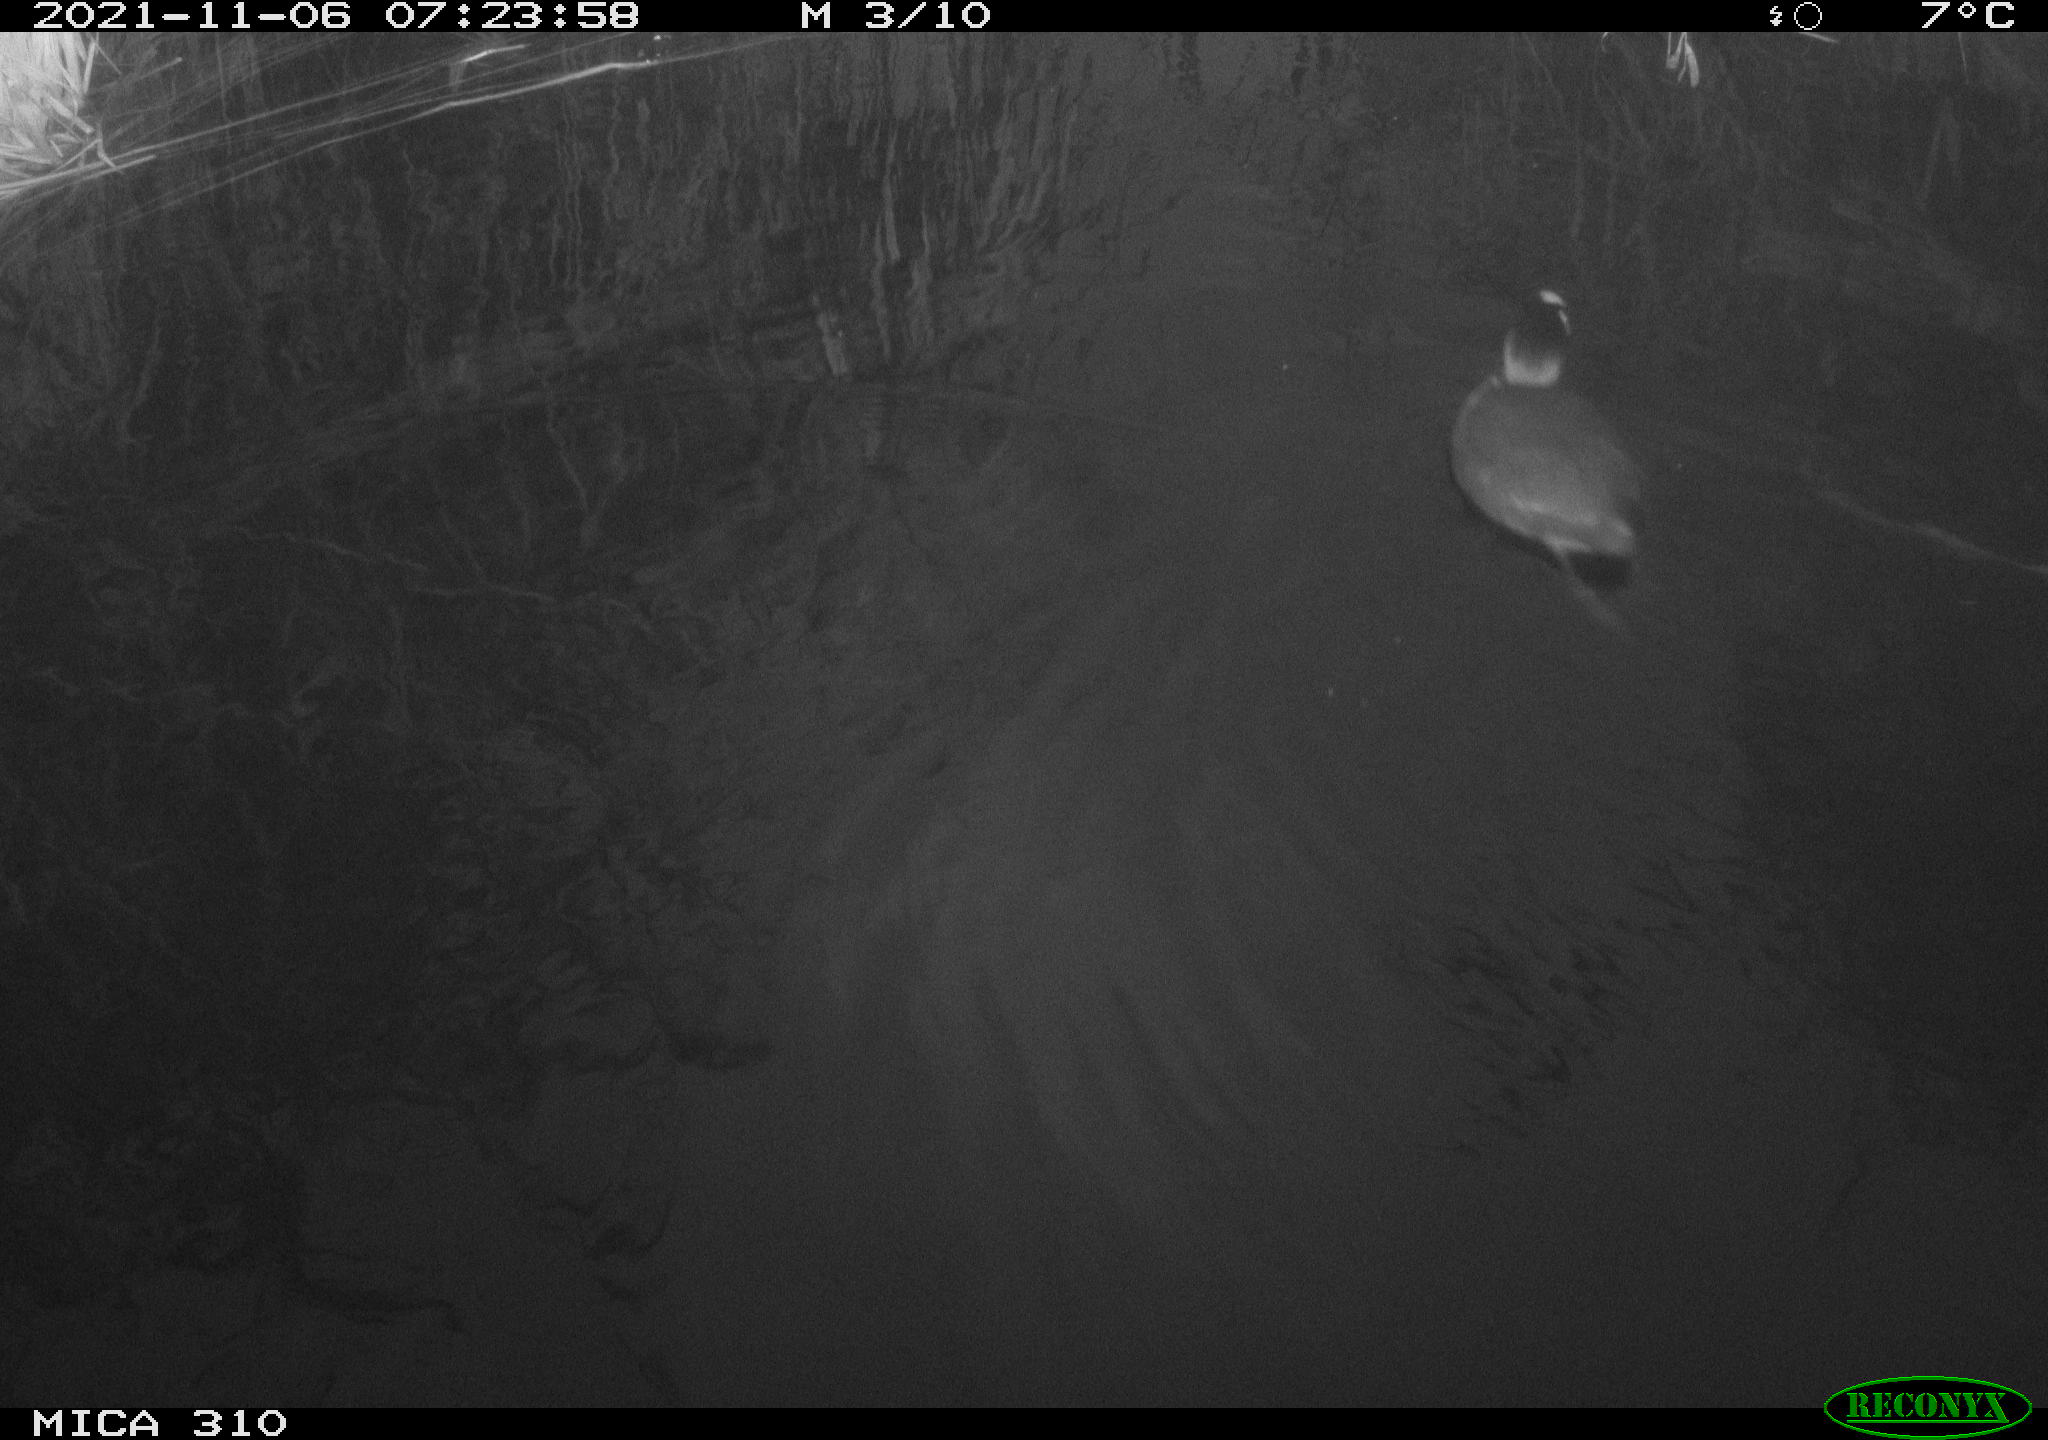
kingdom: Animalia
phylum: Chordata
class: Aves
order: Gruiformes
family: Rallidae
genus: Fulica
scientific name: Fulica atra
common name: Eurasian coot
